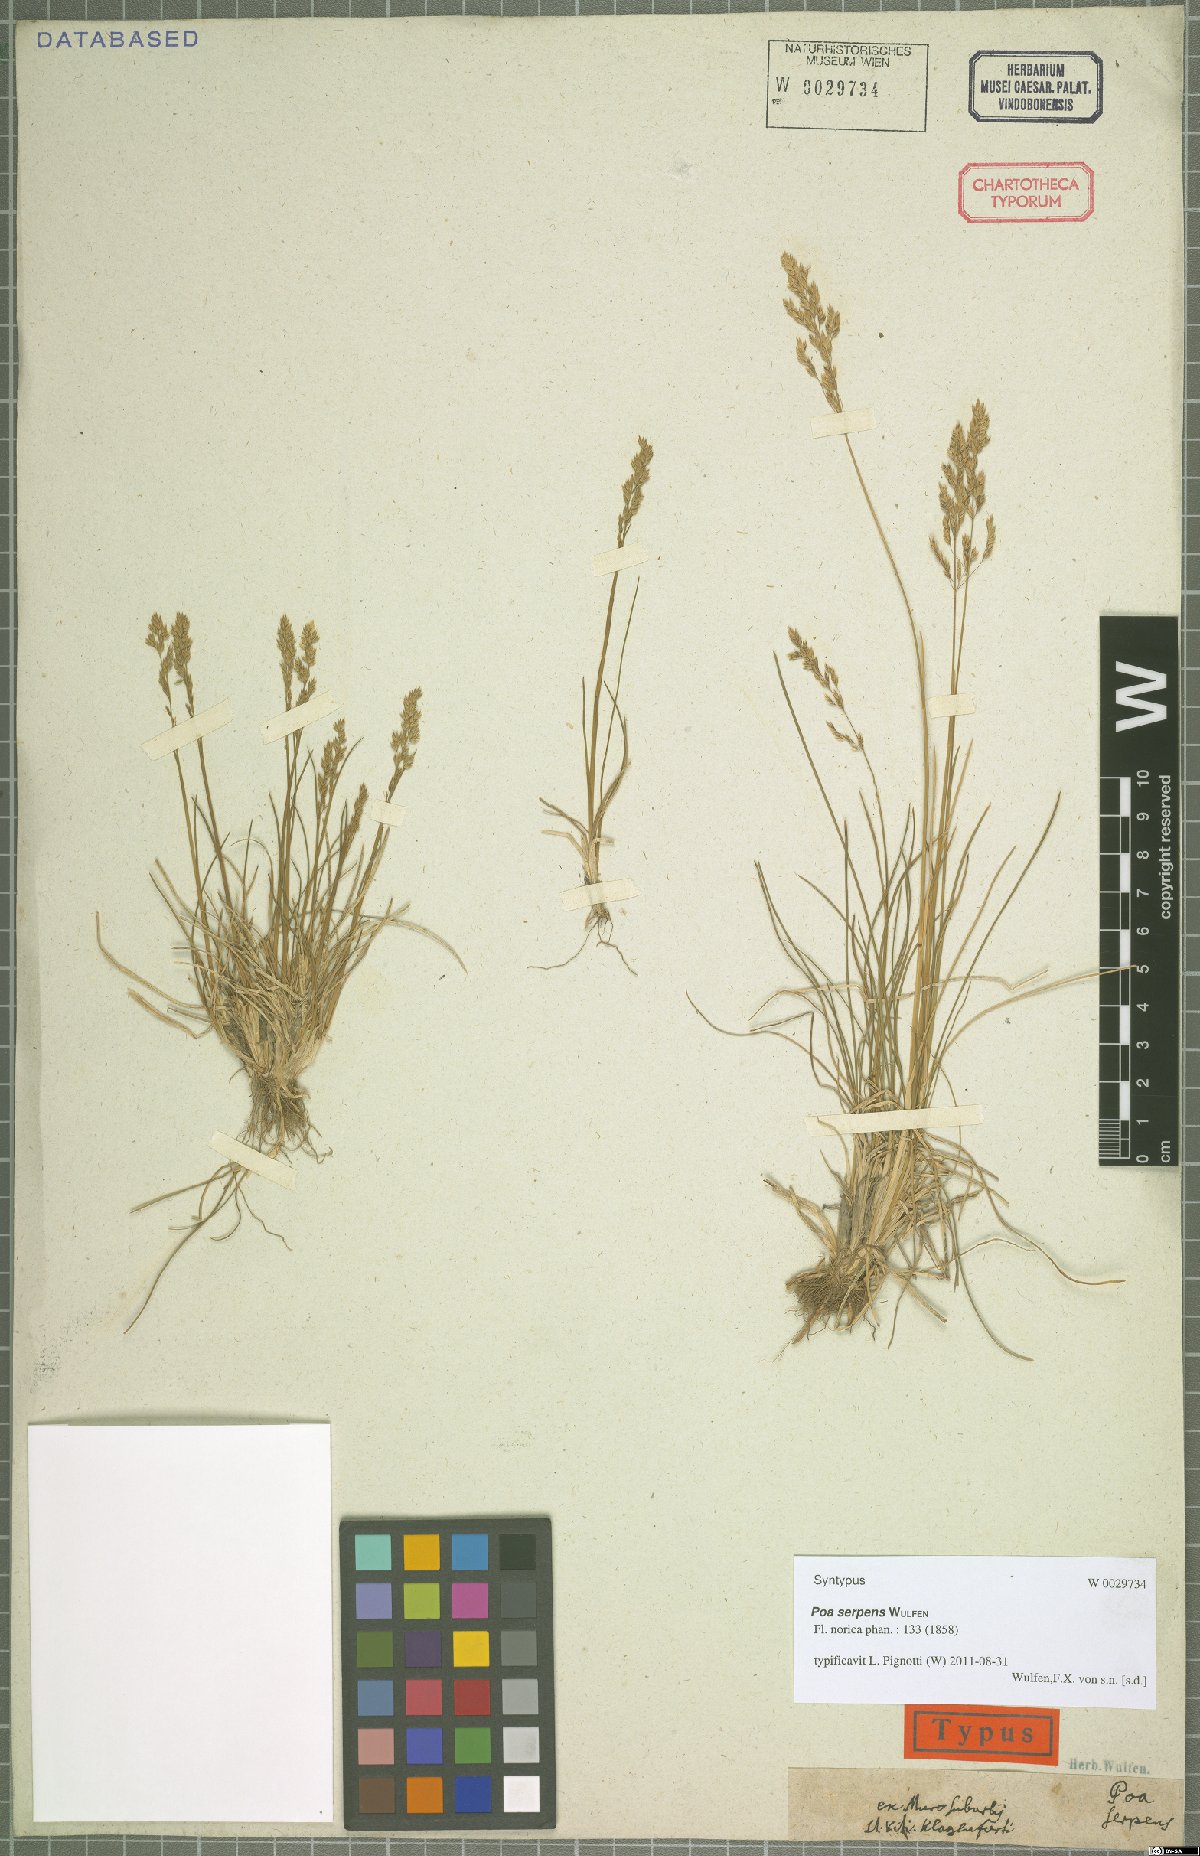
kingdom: Plantae
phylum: Tracheophyta
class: Liliopsida
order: Poales
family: Poaceae
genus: Poa
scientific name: Poa alpina
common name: Alpine bluegrass
